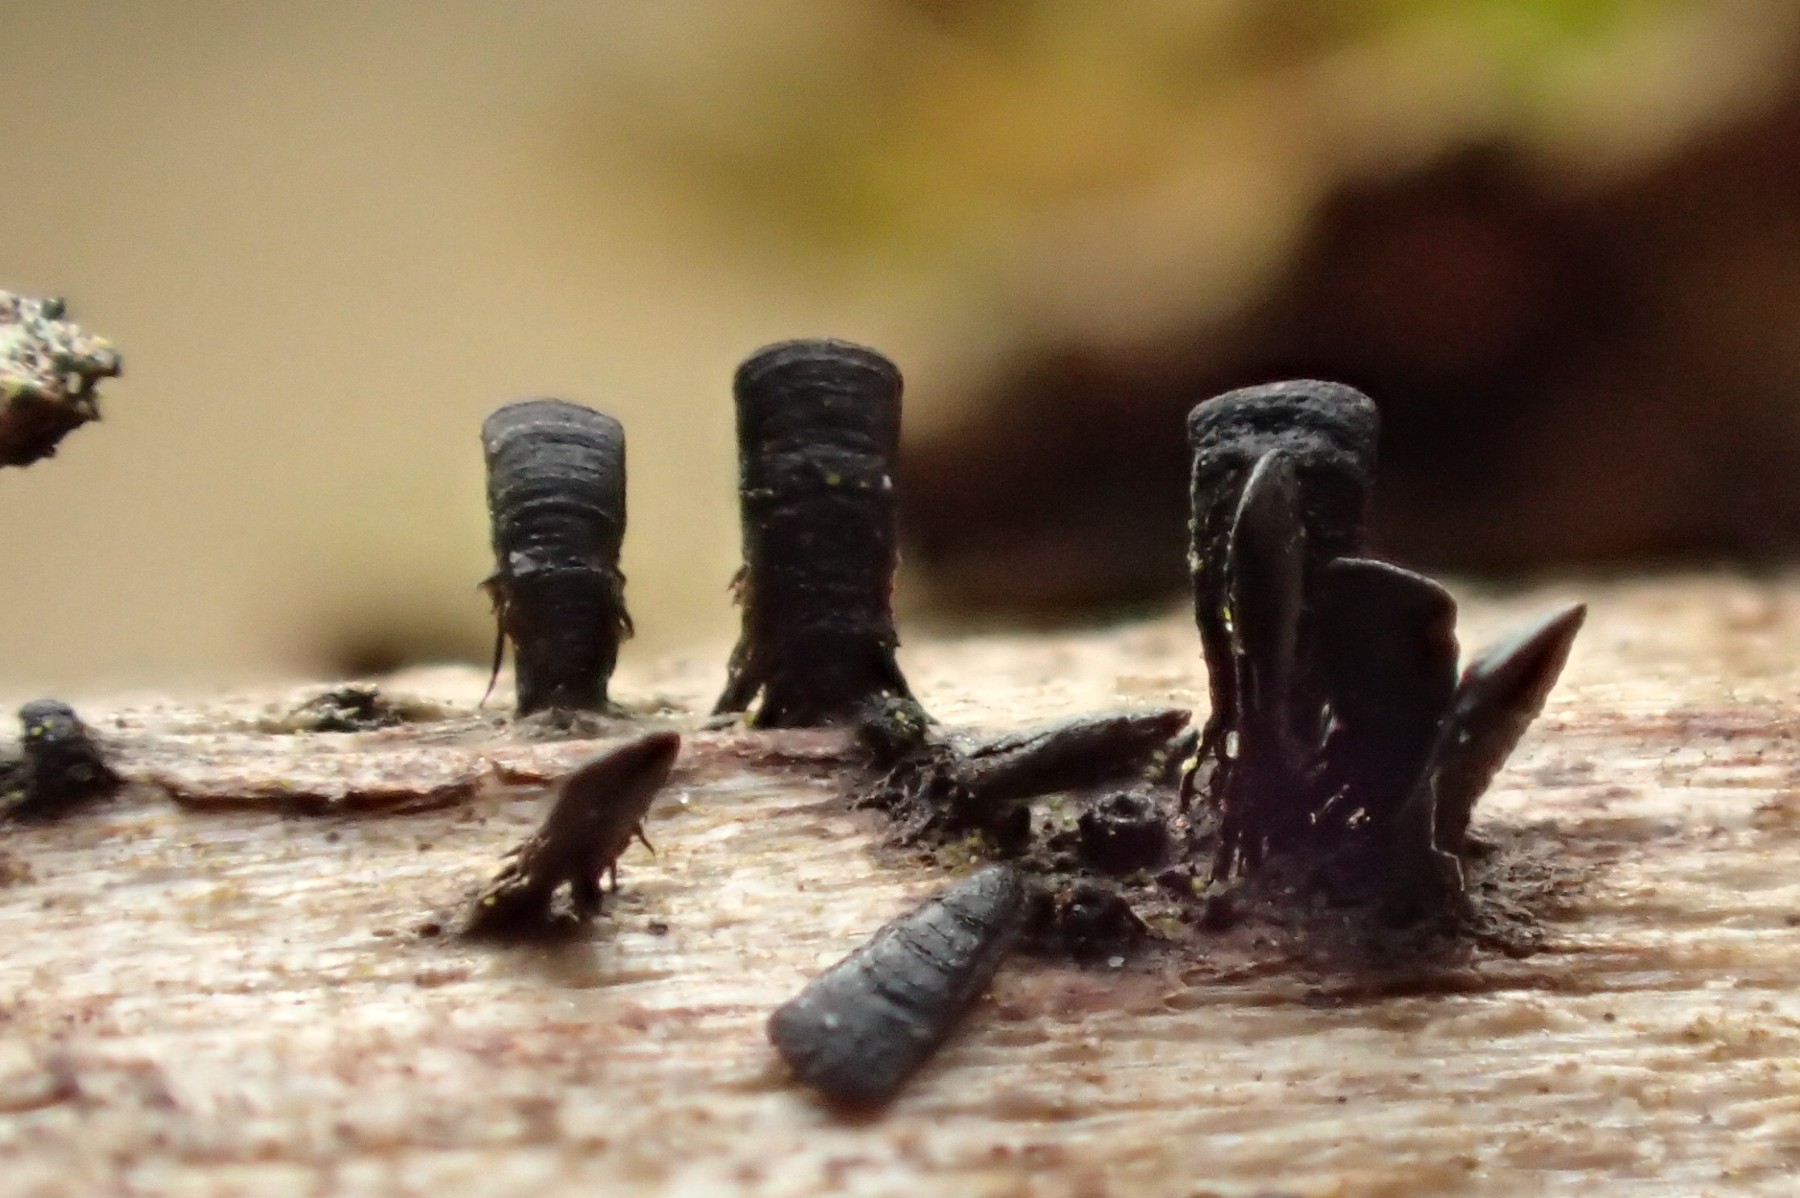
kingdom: Fungi
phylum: Ascomycota
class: Eurotiomycetes
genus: Glyphium
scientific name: Glyphium elatum
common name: kuløkse
